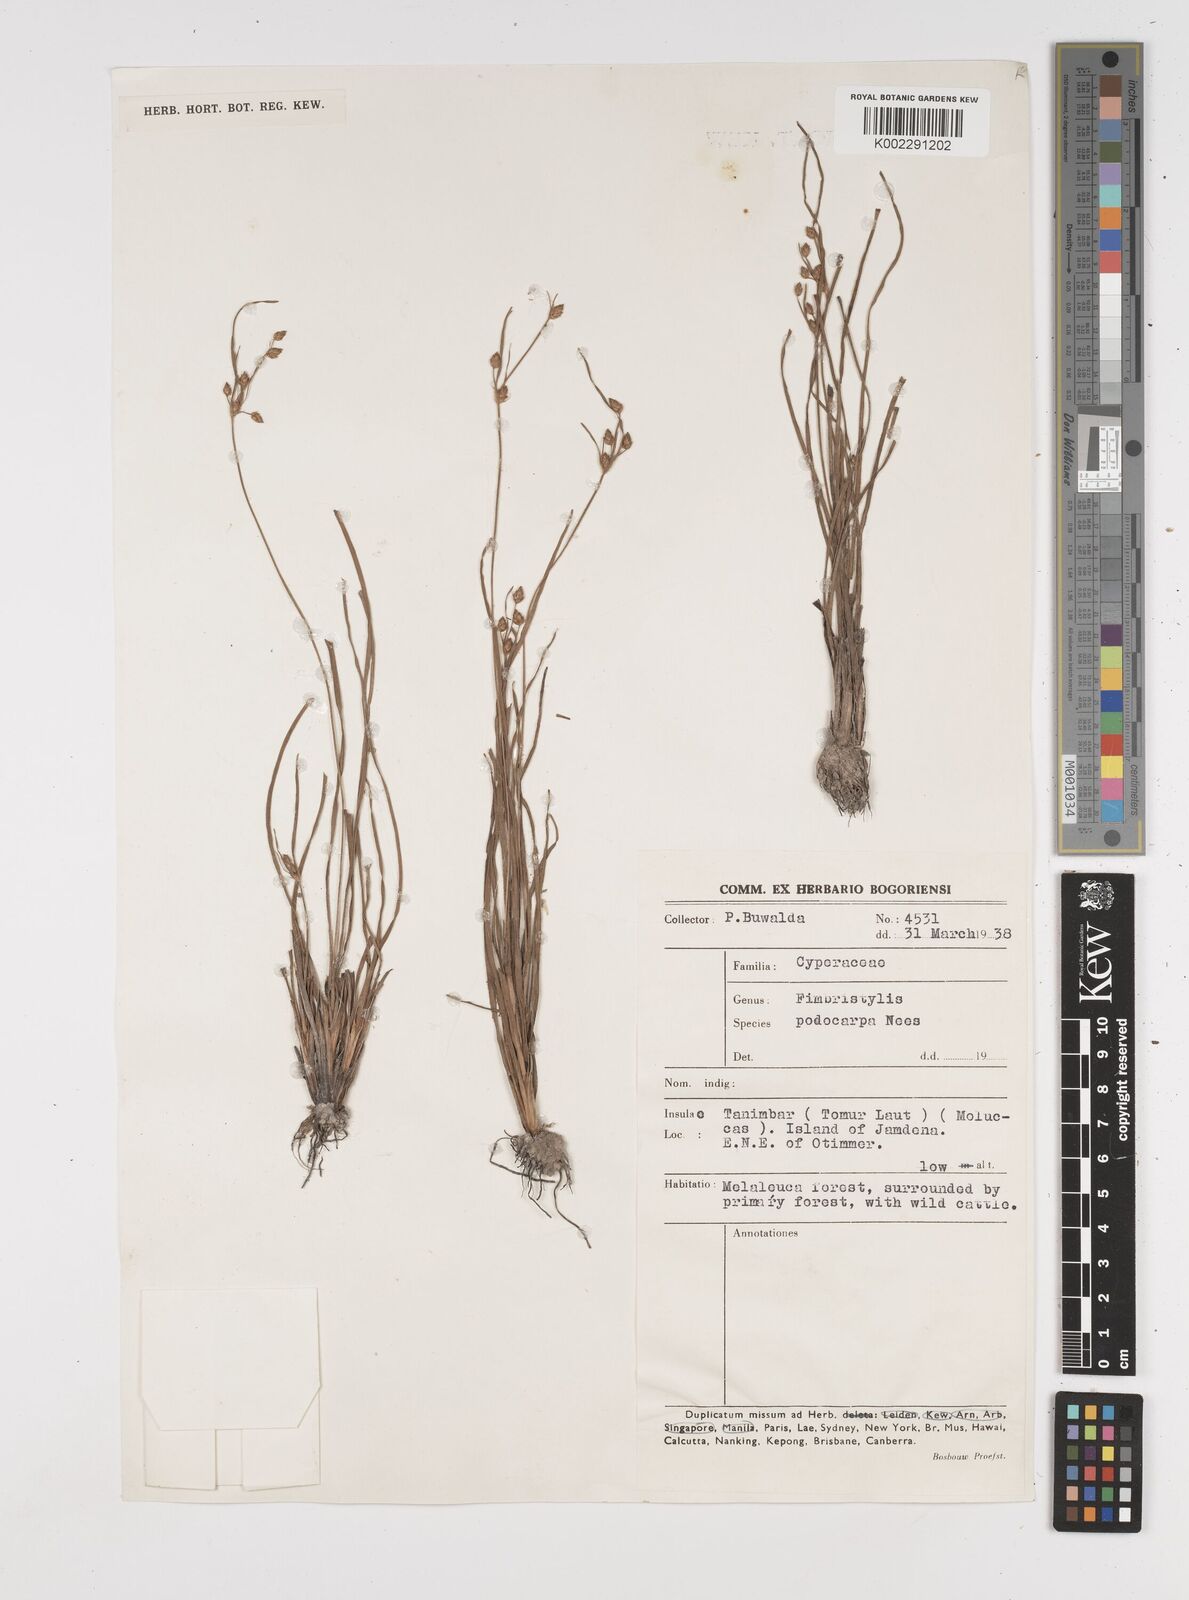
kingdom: Plantae
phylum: Tracheophyta
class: Liliopsida
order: Poales
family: Cyperaceae
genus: Fimbristylis
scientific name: Fimbristylis dichotoma
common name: Forked fimbry
